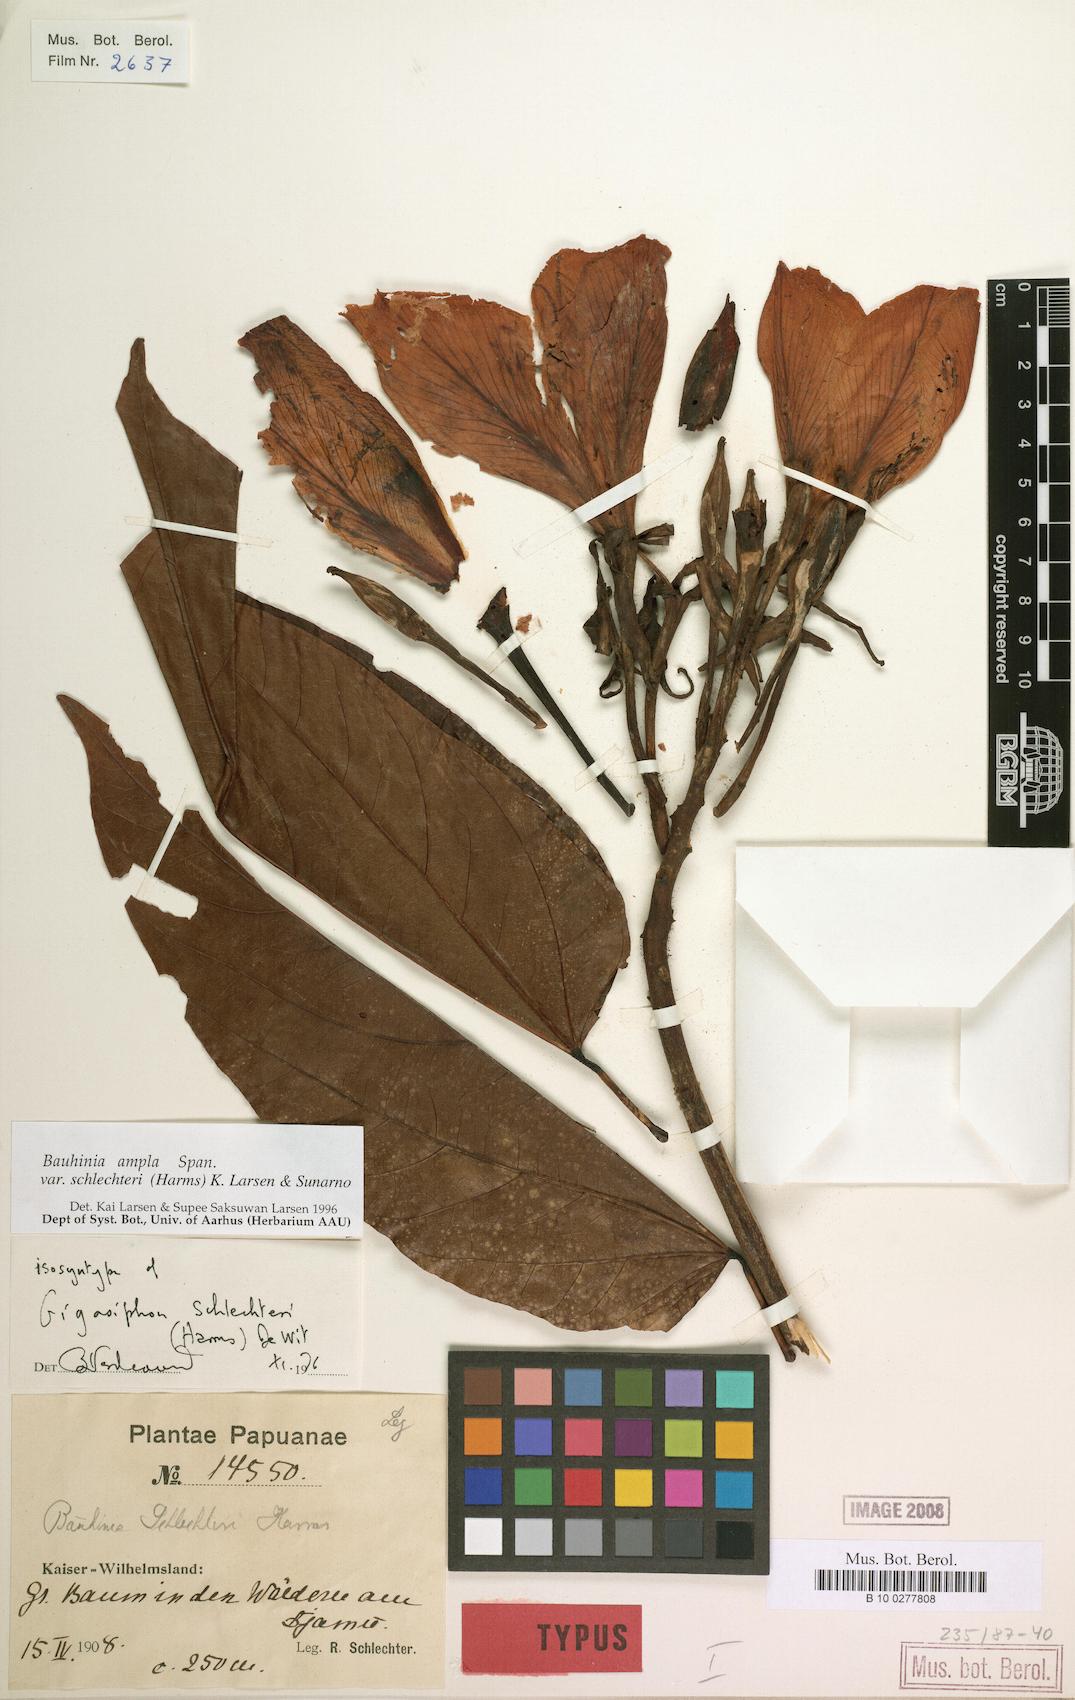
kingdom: Plantae
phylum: Tracheophyta
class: Magnoliopsida
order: Fabales
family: Fabaceae
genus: Gigasiphon
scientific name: Gigasiphon schlechteri
